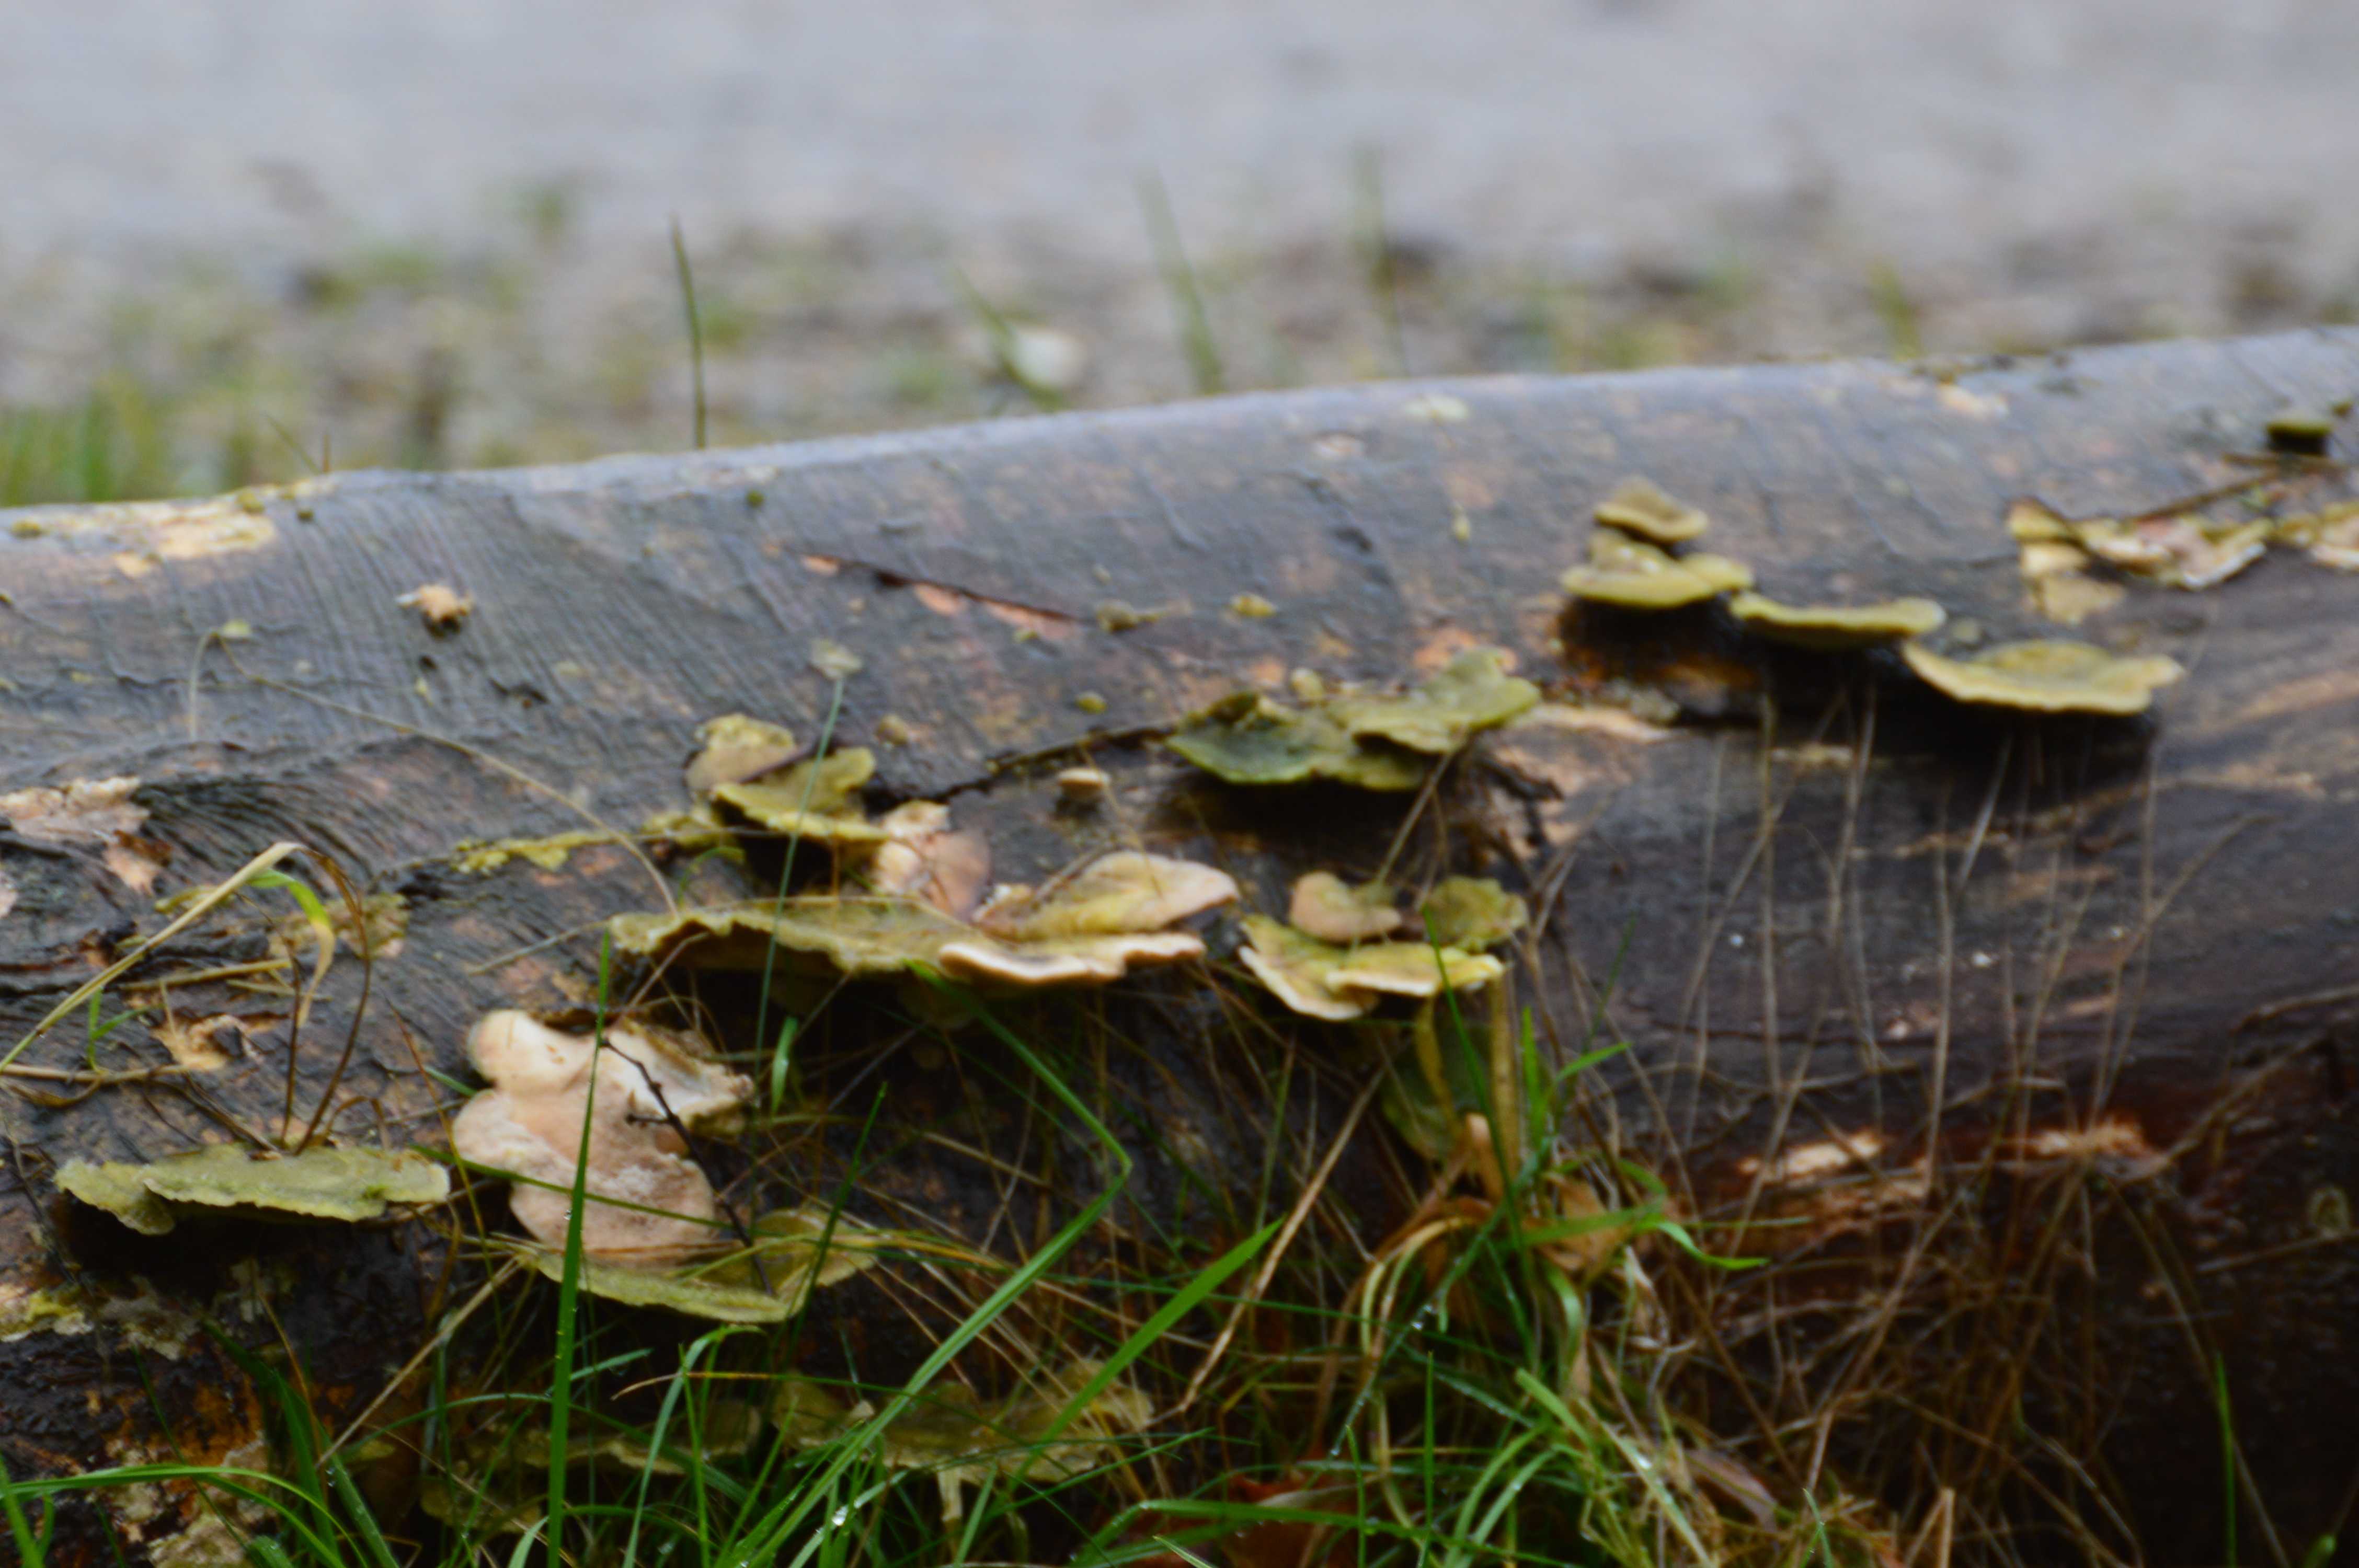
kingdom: Fungi
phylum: Basidiomycota
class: Agaricomycetes
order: Polyporales
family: Polyporaceae
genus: Trametes
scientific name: Trametes
